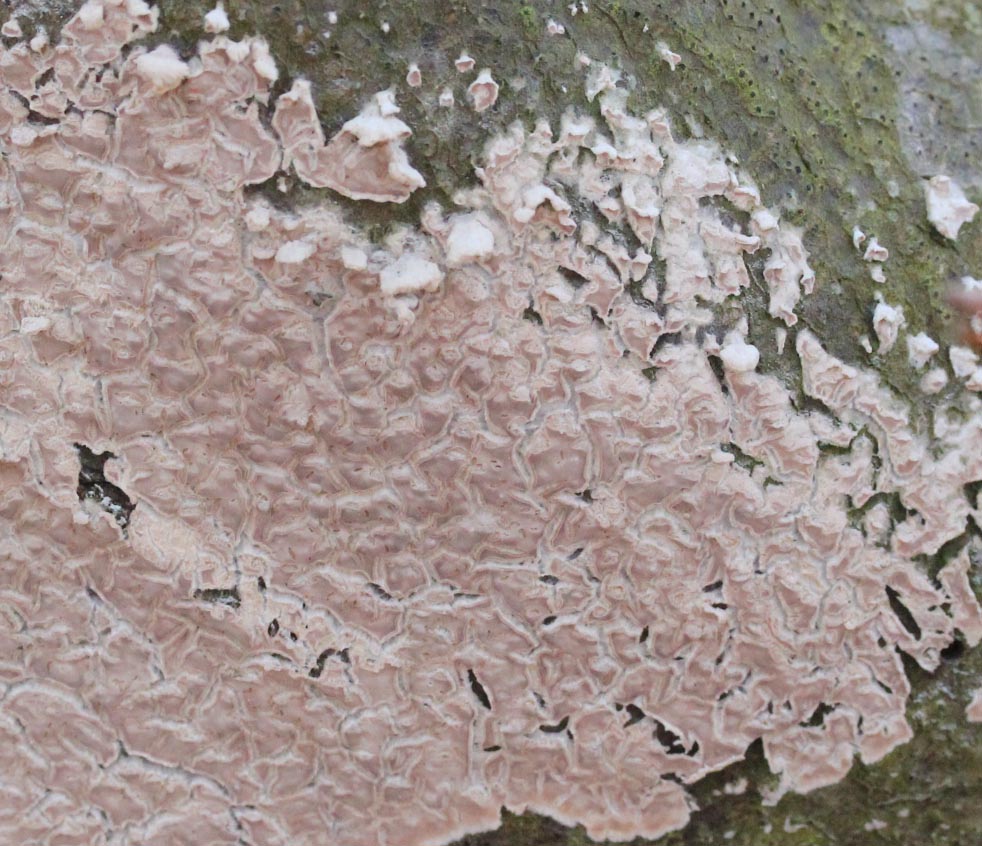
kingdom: Fungi
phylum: Basidiomycota
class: Agaricomycetes
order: Agaricales
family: Physalacriaceae
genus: Cylindrobasidium
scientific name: Cylindrobasidium evolvens
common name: sprækkehinde
